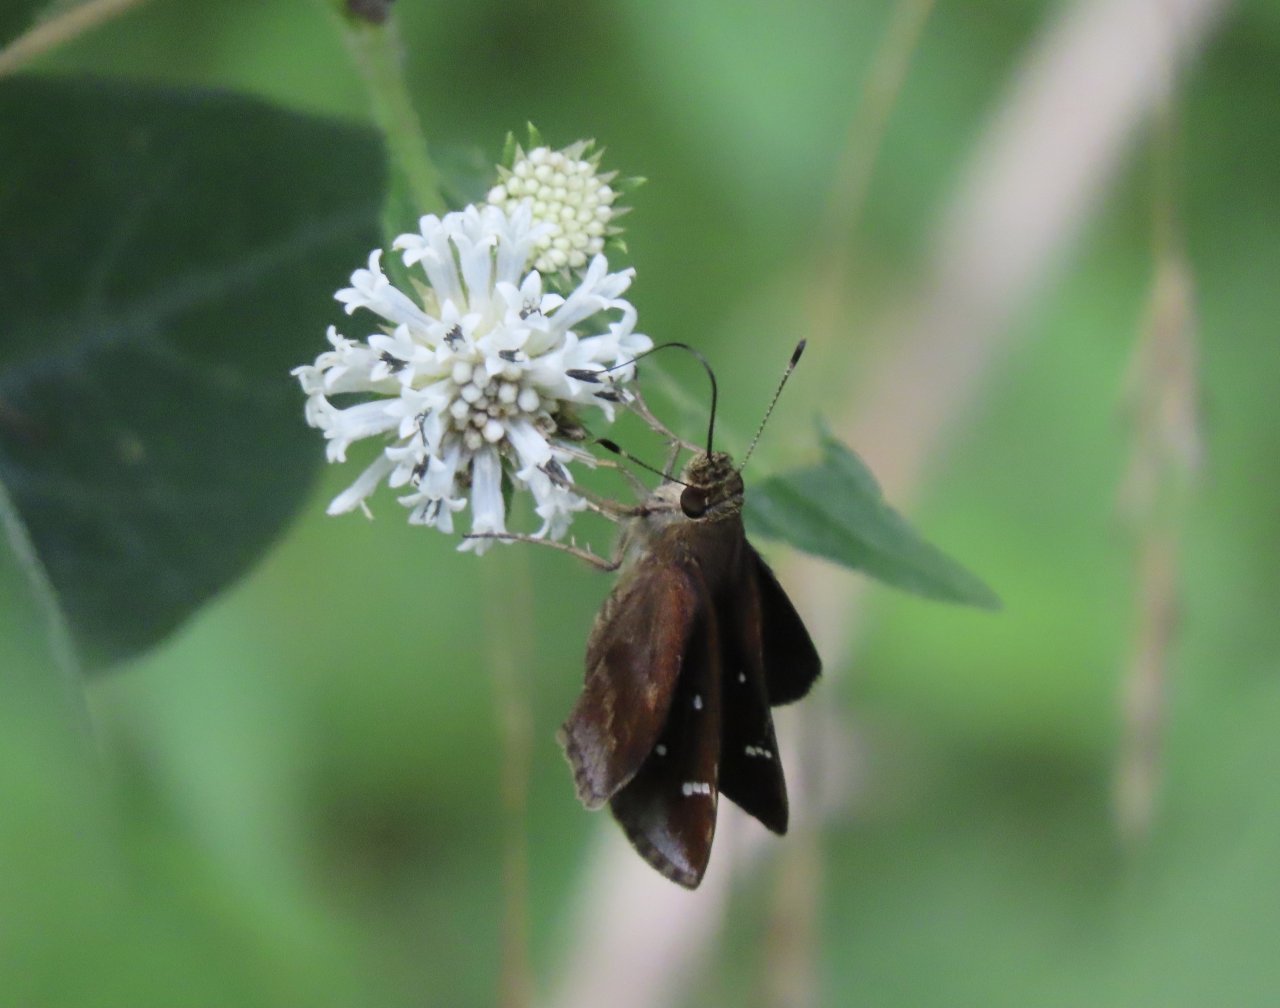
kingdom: Animalia
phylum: Arthropoda
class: Insecta
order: Lepidoptera
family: Hesperiidae
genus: Lerema
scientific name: Lerema accius
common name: Clouded Skipper
